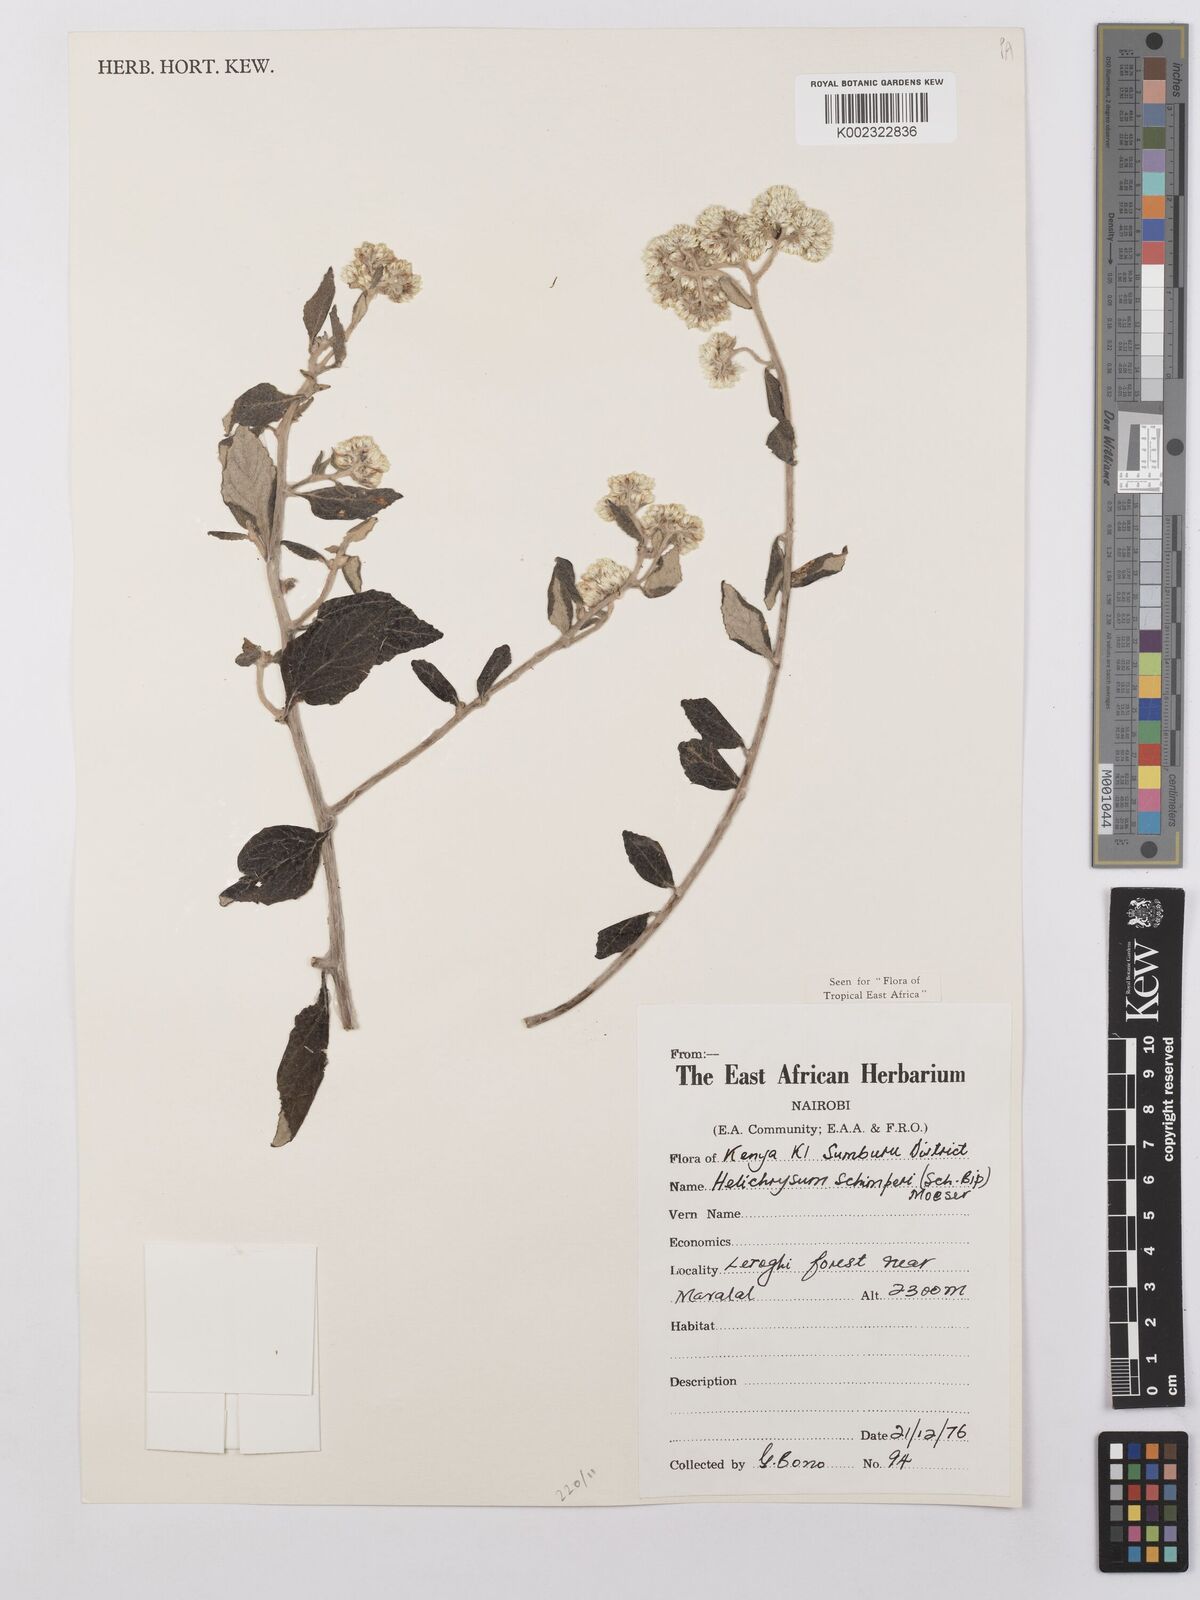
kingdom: Plantae
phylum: Tracheophyta
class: Magnoliopsida
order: Asterales
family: Asteraceae
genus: Helichrysum
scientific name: Helichrysum schimperi
